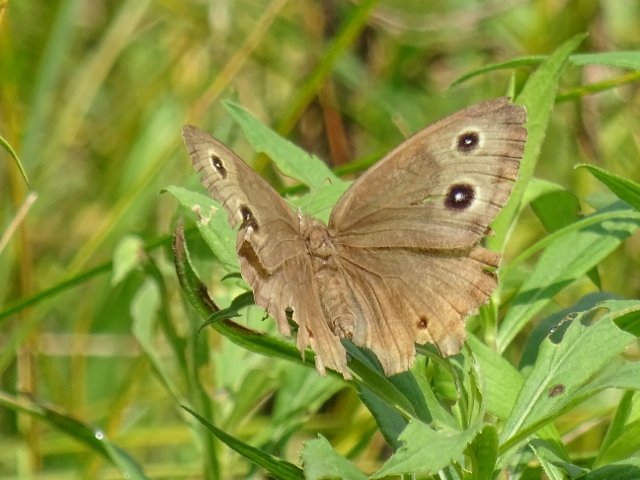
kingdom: Animalia
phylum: Arthropoda
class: Insecta
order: Lepidoptera
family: Nymphalidae
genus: Cercyonis
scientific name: Cercyonis pegala
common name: Common Wood-Nymph
